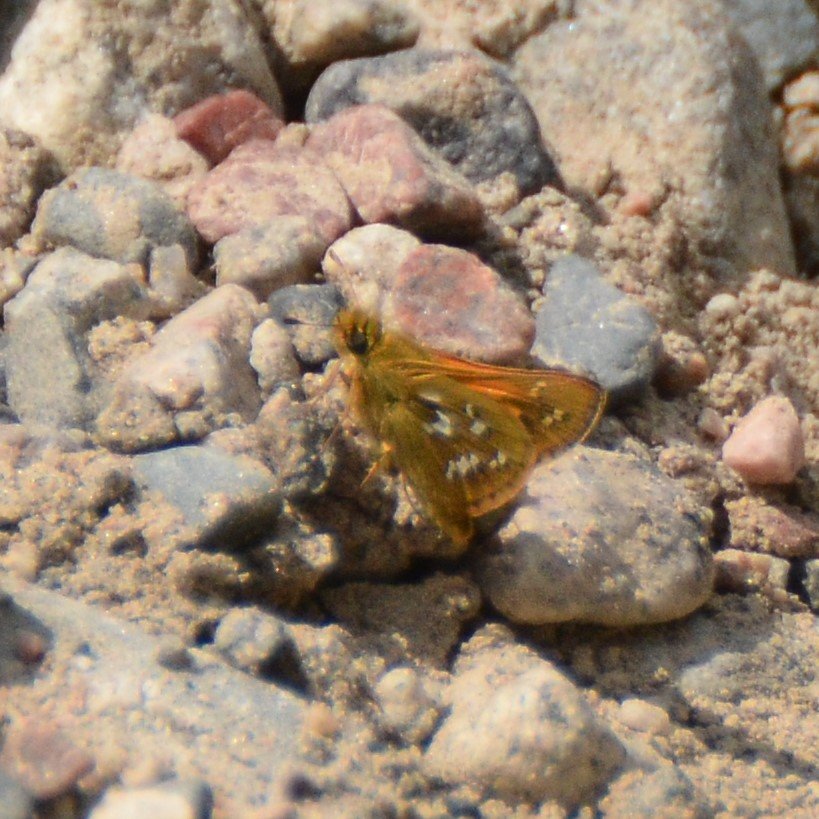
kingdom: Animalia
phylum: Arthropoda
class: Insecta
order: Lepidoptera
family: Hesperiidae
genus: Hesperia
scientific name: Hesperia comma
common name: Common Branded Skipper
